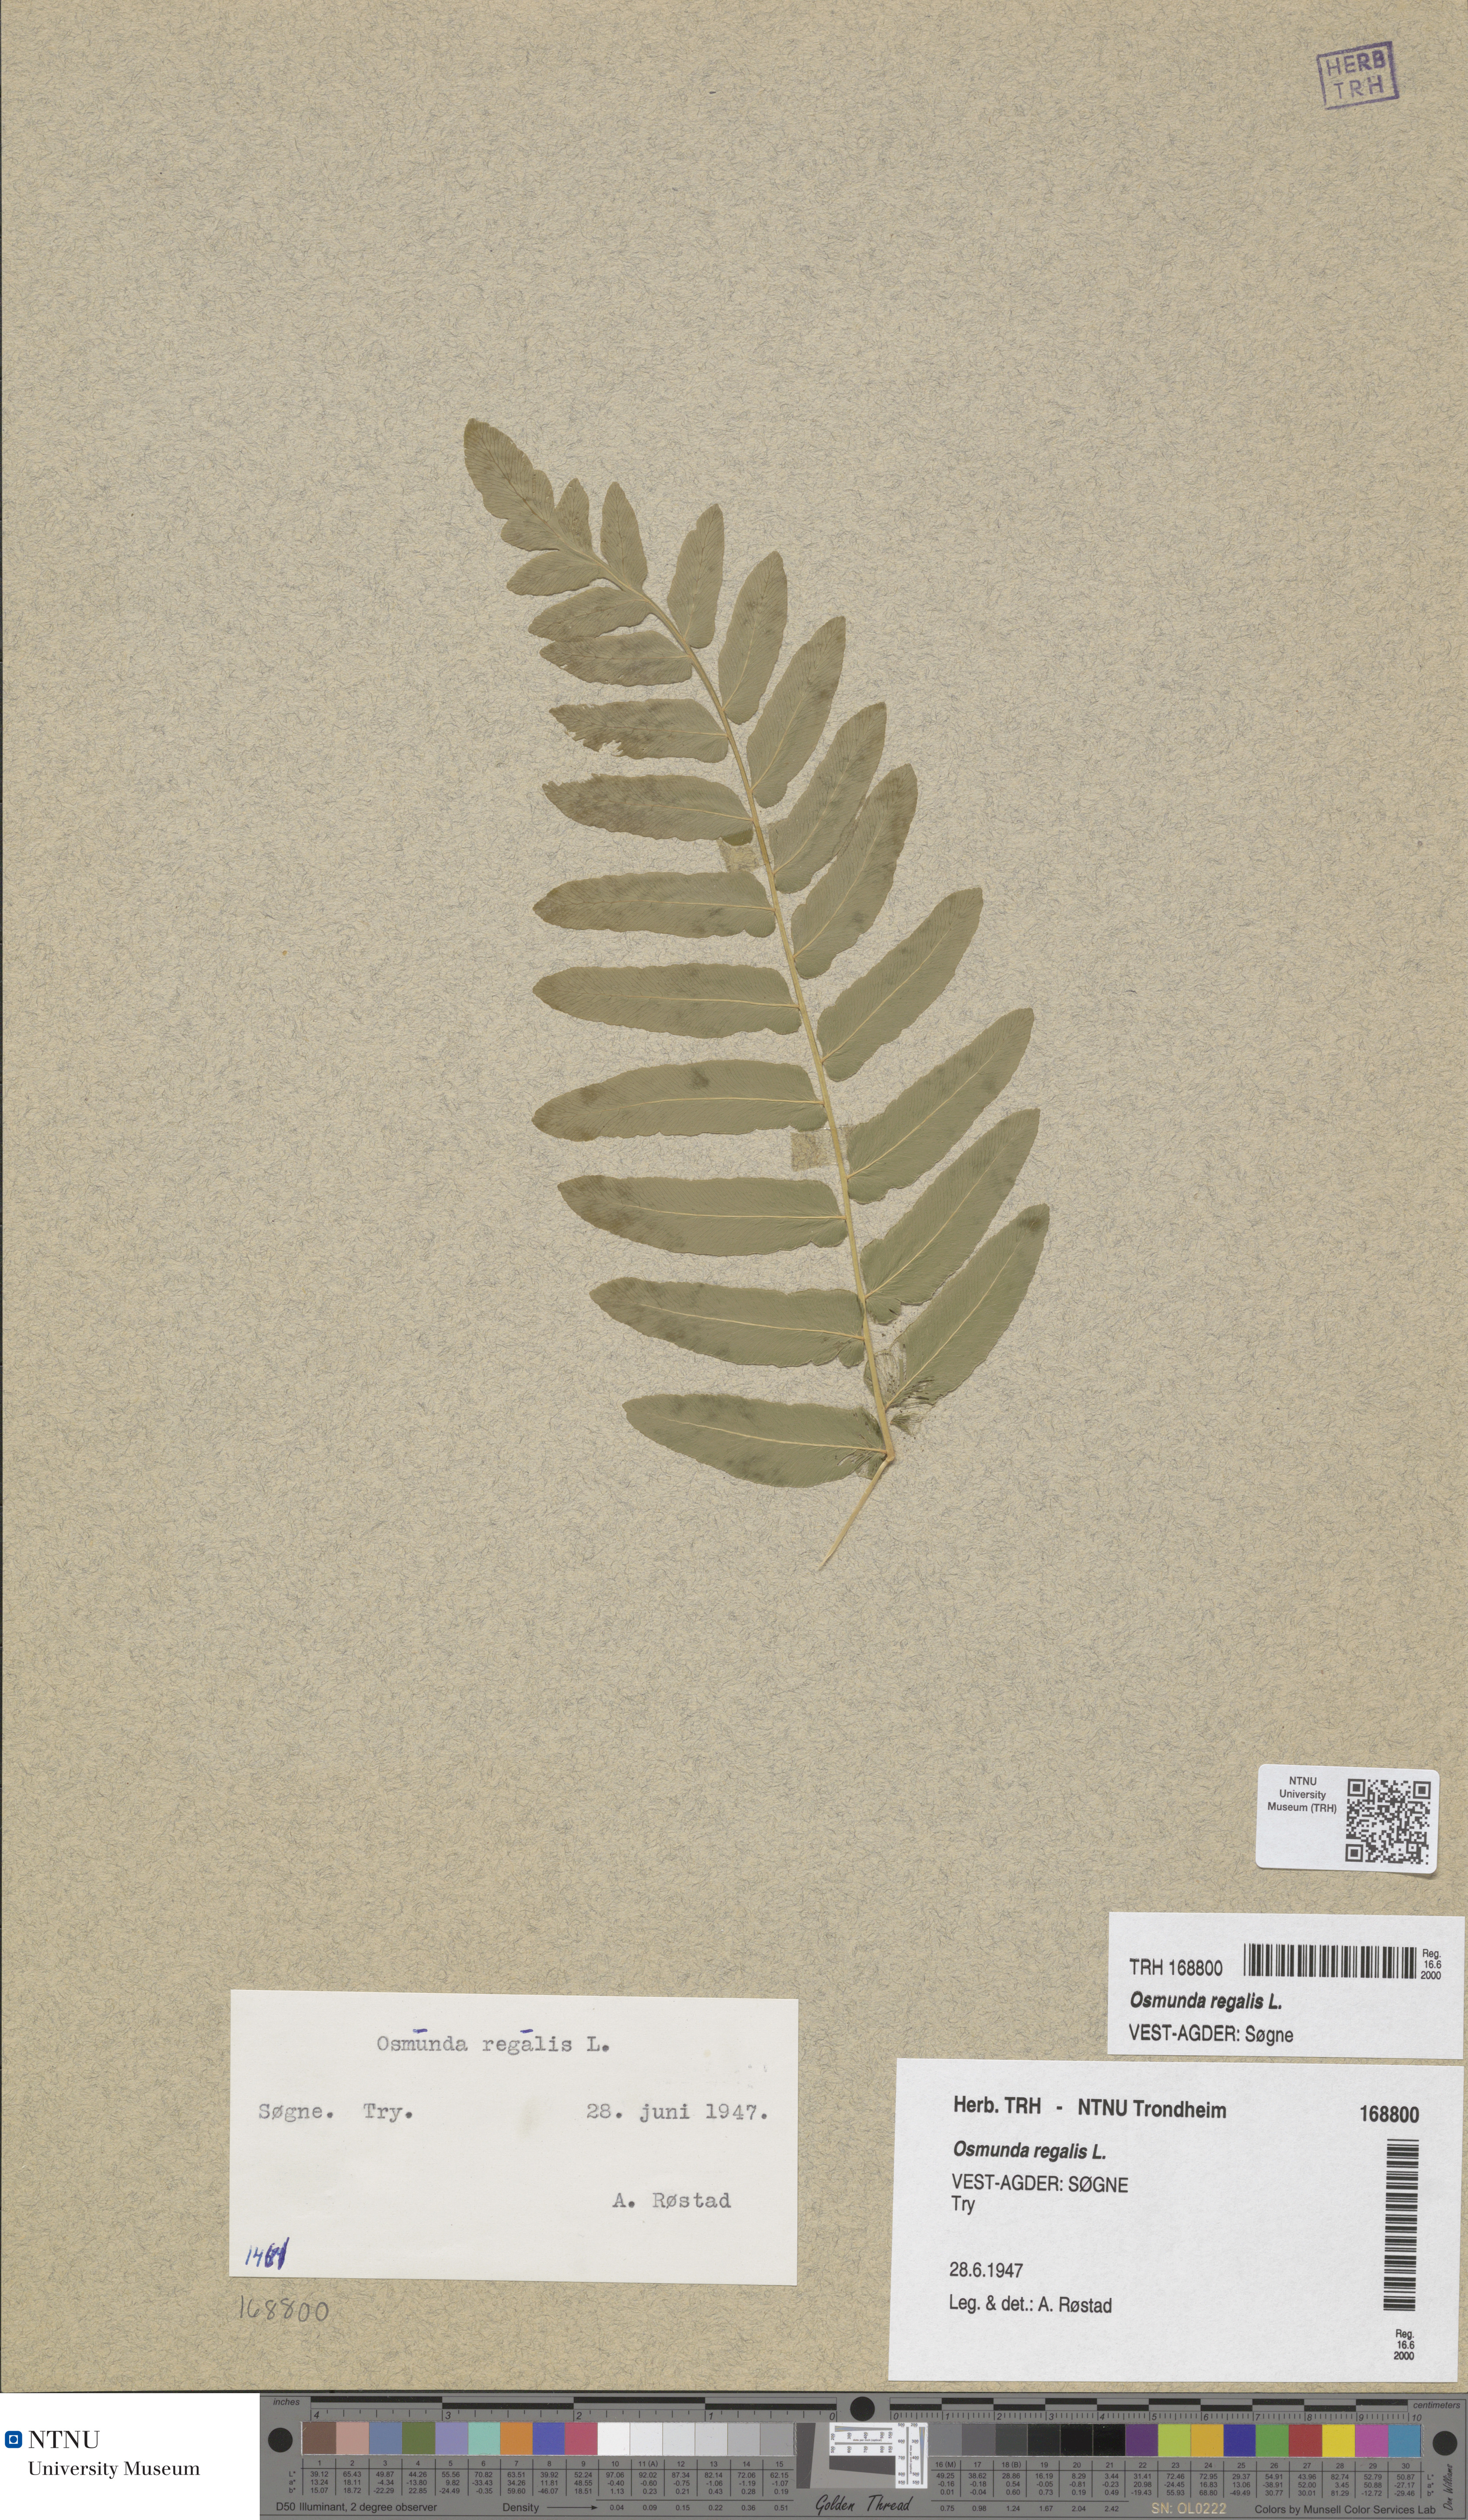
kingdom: Plantae
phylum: Tracheophyta
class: Polypodiopsida
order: Osmundales
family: Osmundaceae
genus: Osmunda
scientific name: Osmunda regalis
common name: Royal fern
